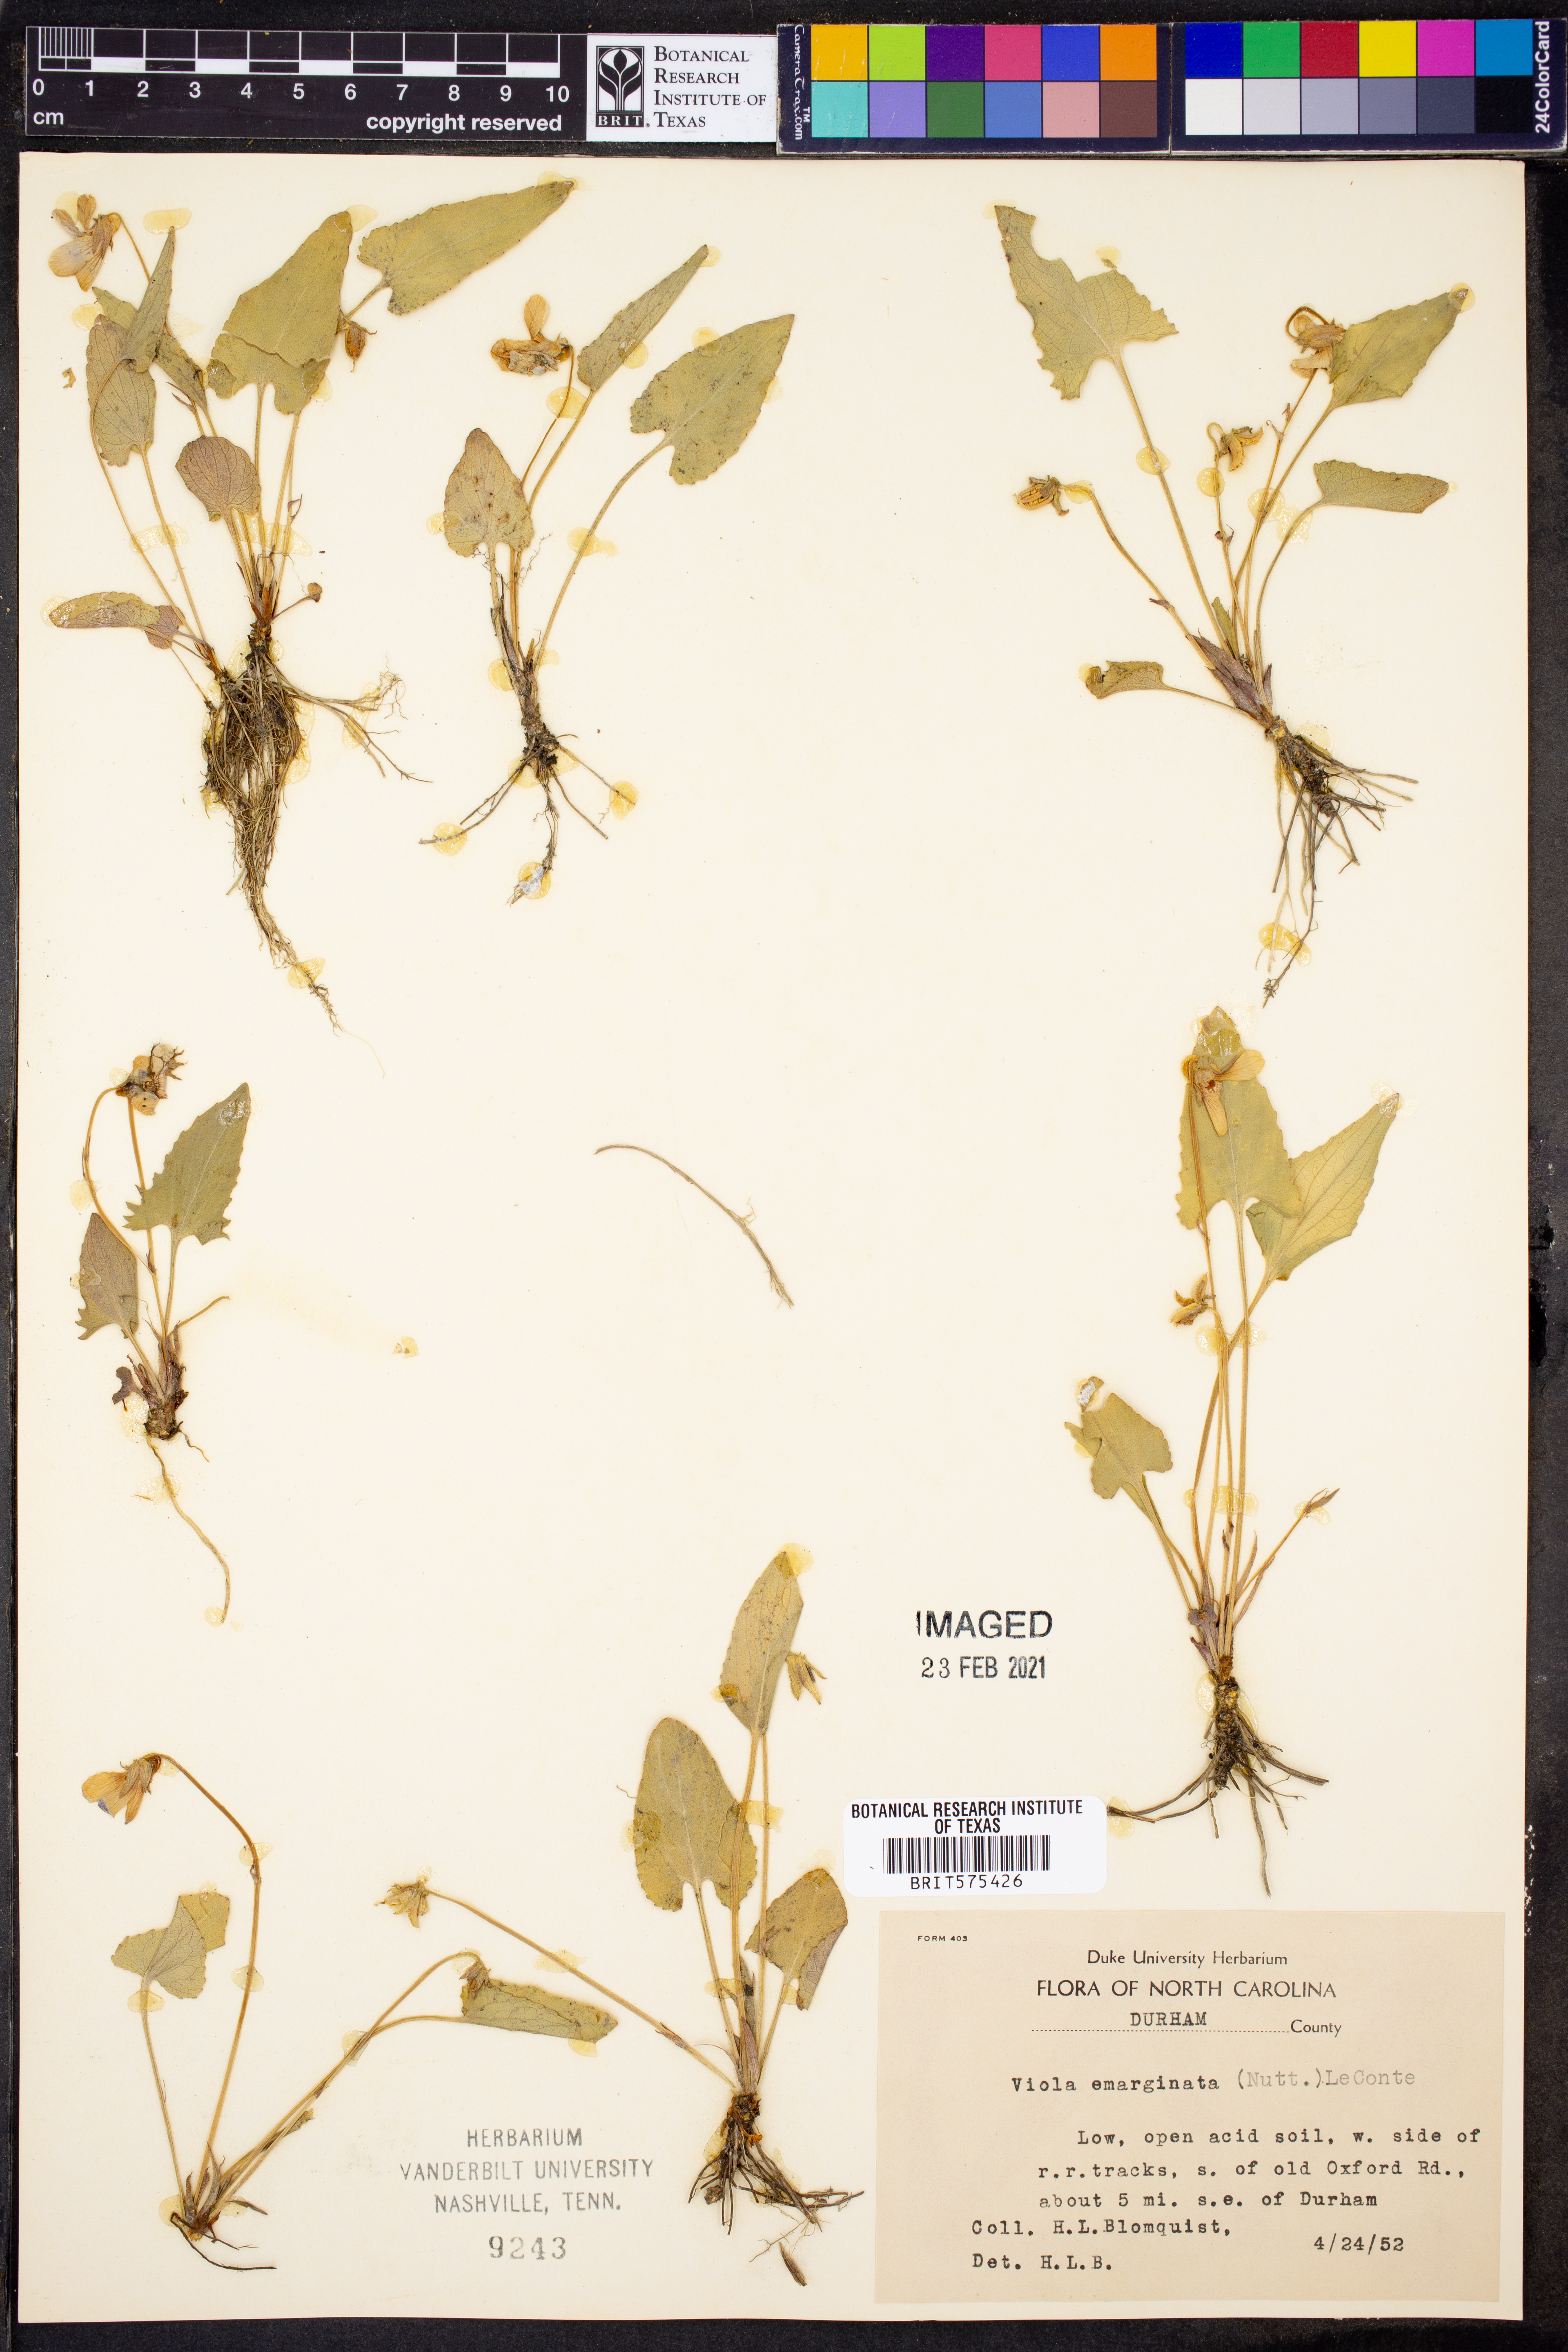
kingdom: Plantae
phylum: Tracheophyta
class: Magnoliopsida
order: Malpighiales
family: Violaceae
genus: Viola
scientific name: Viola emarginata
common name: Triangle-leaved violet
